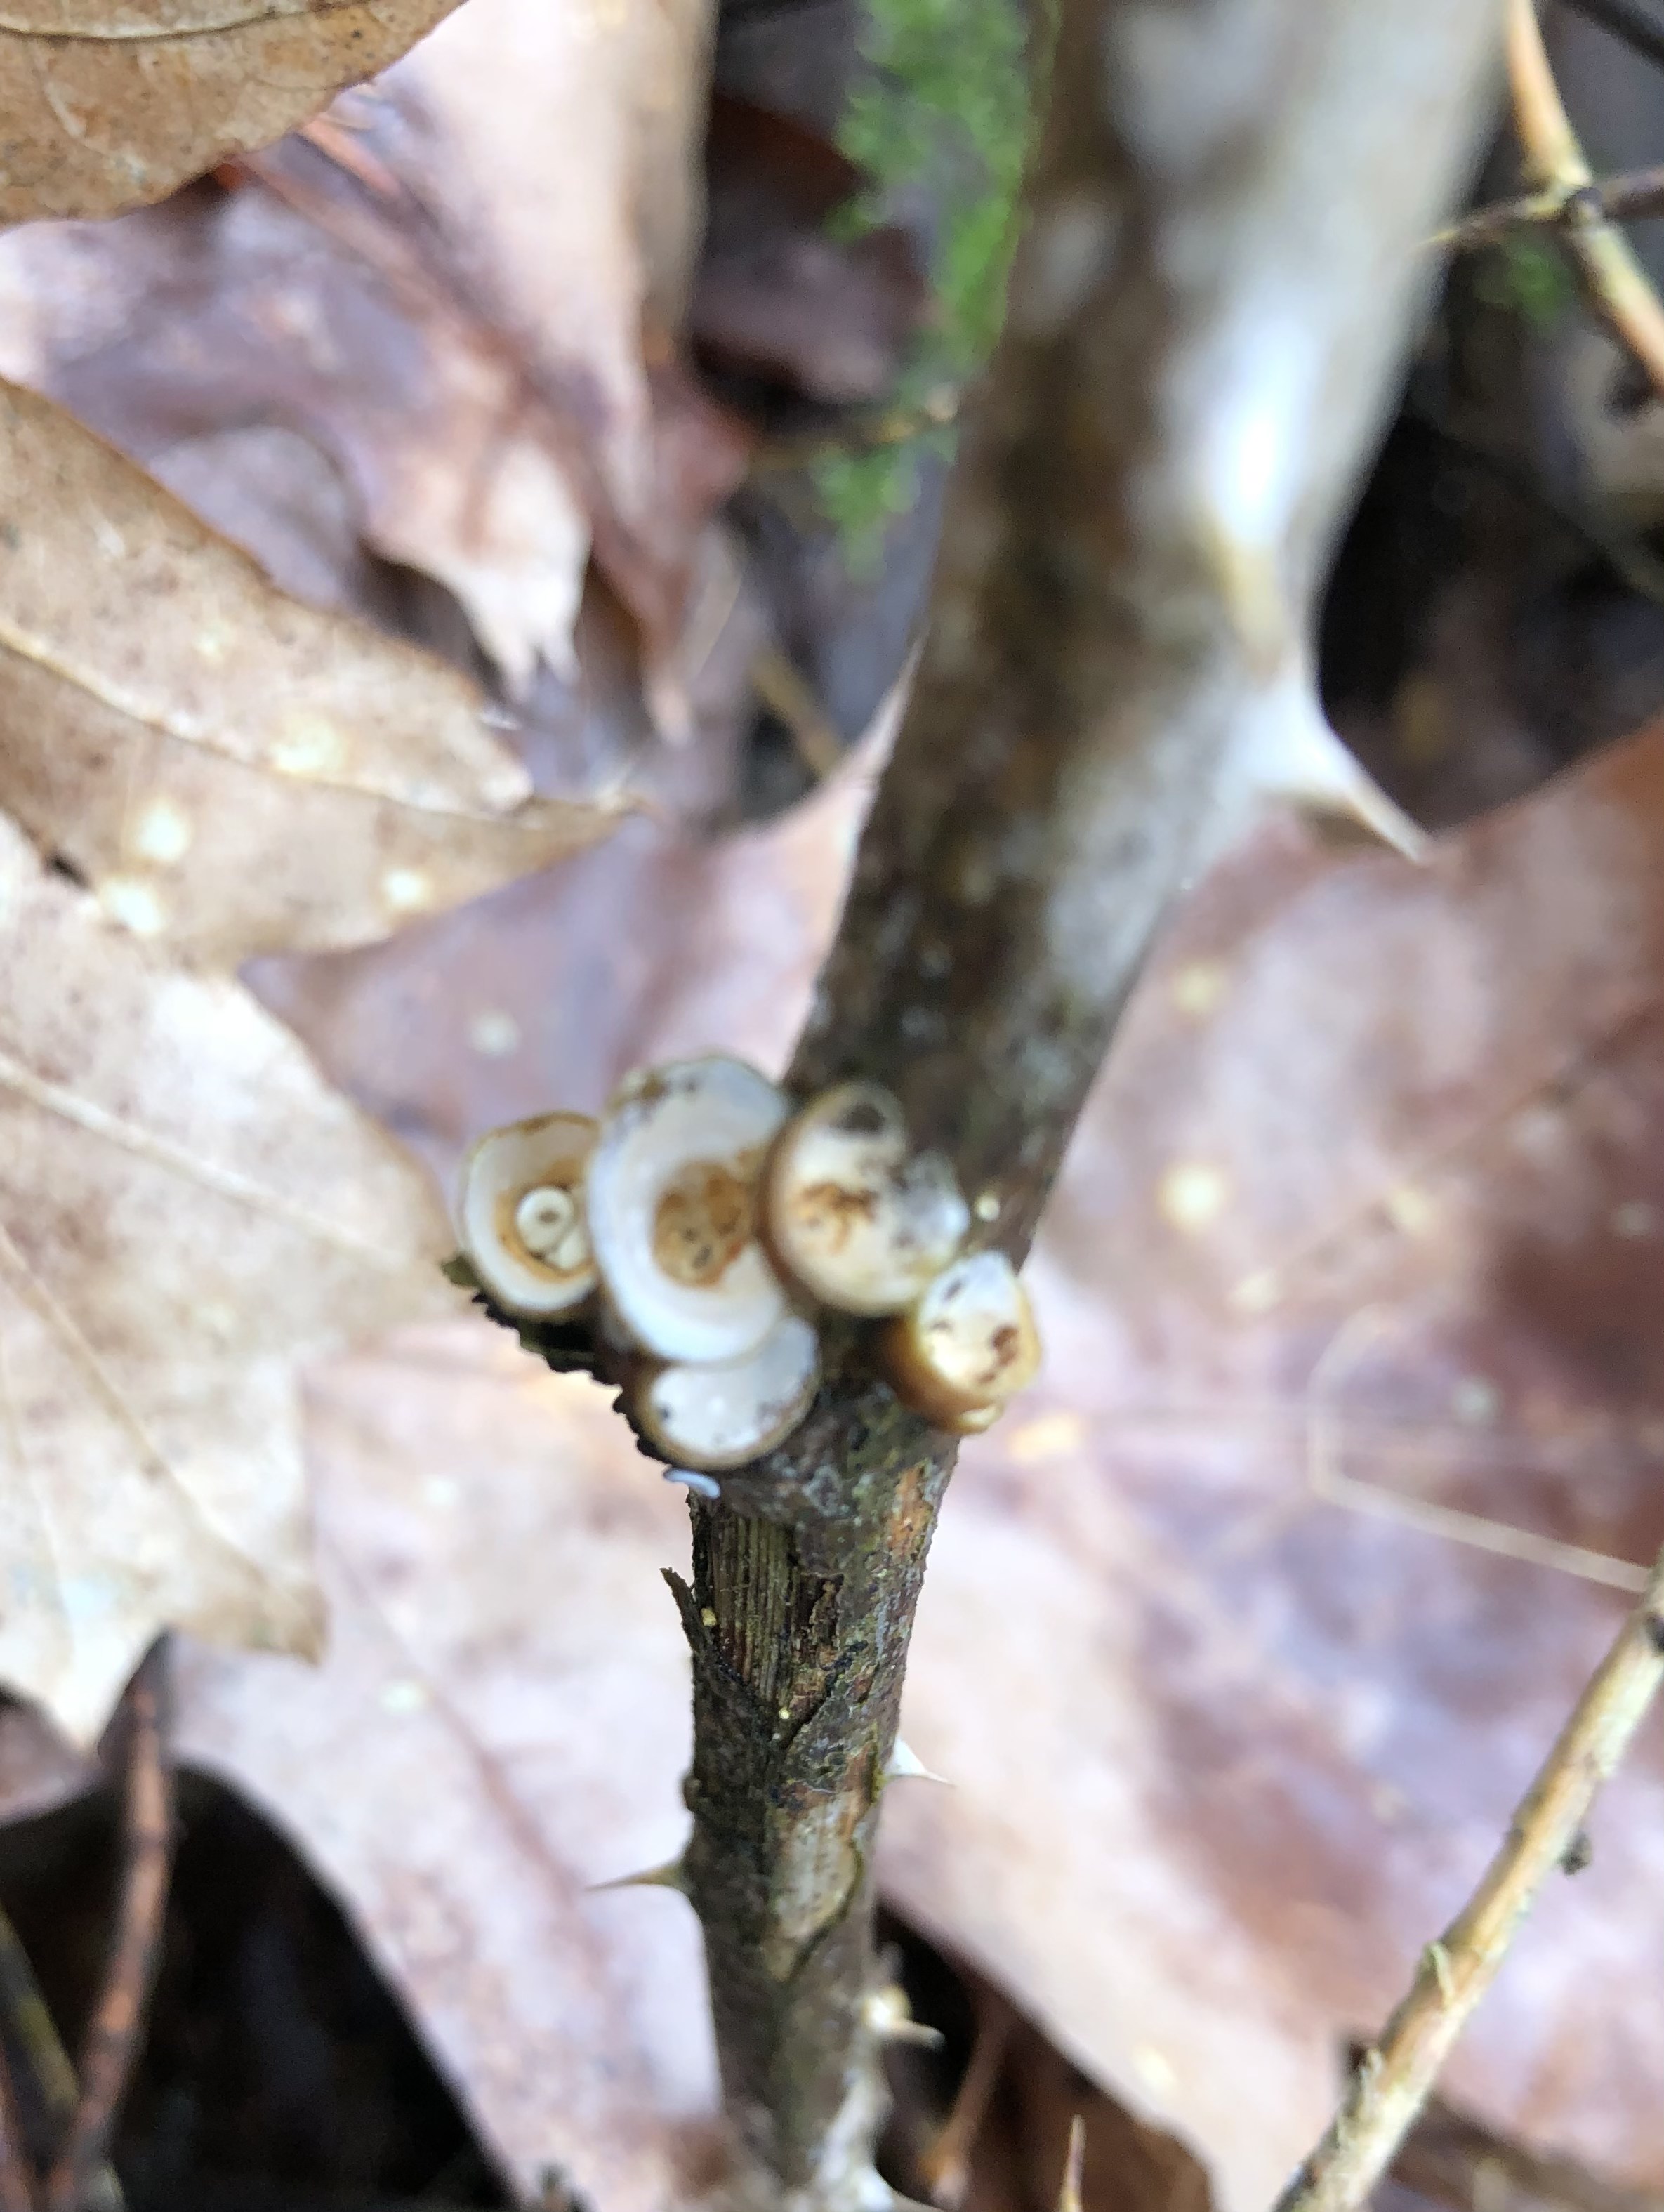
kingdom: Fungi
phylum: Basidiomycota
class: Agaricomycetes
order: Agaricales
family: Nidulariaceae
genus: Crucibulum
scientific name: Crucibulum crucibuliforme
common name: krukkesvamp
